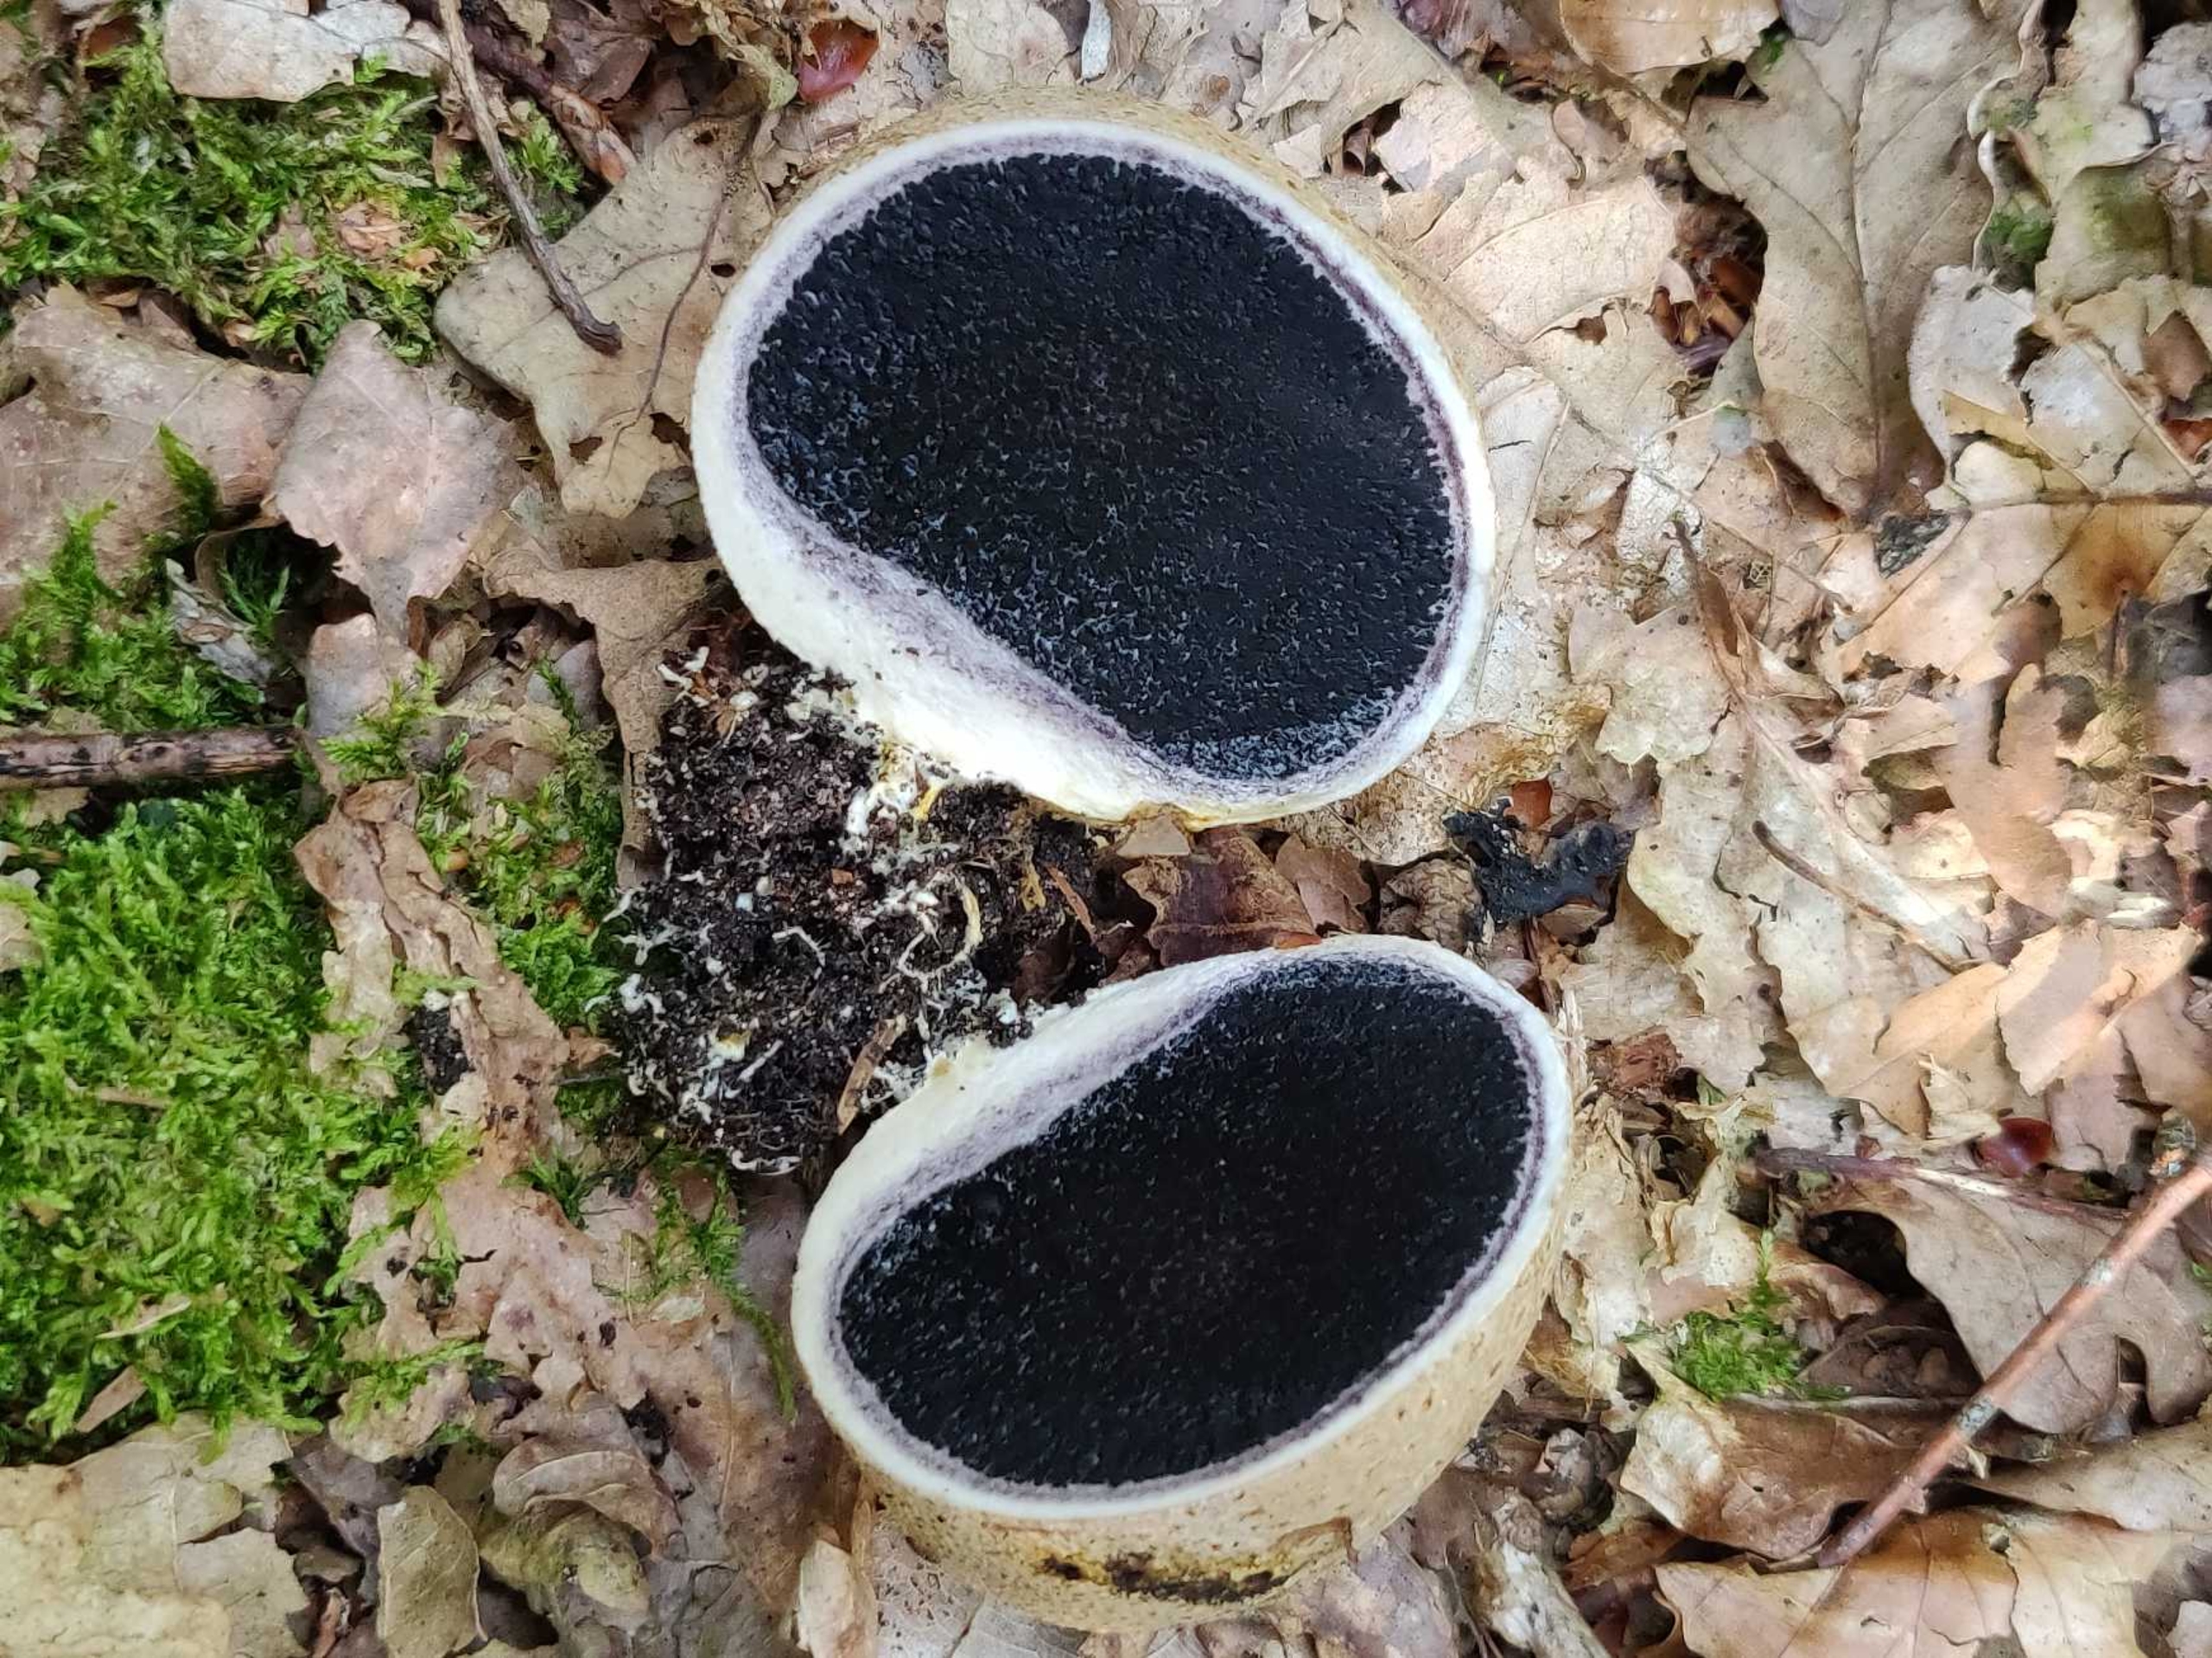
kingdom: Fungi
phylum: Basidiomycota
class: Agaricomycetes
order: Boletales
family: Sclerodermataceae
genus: Scleroderma
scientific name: Scleroderma citrinum
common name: Almindelig bruskbold
